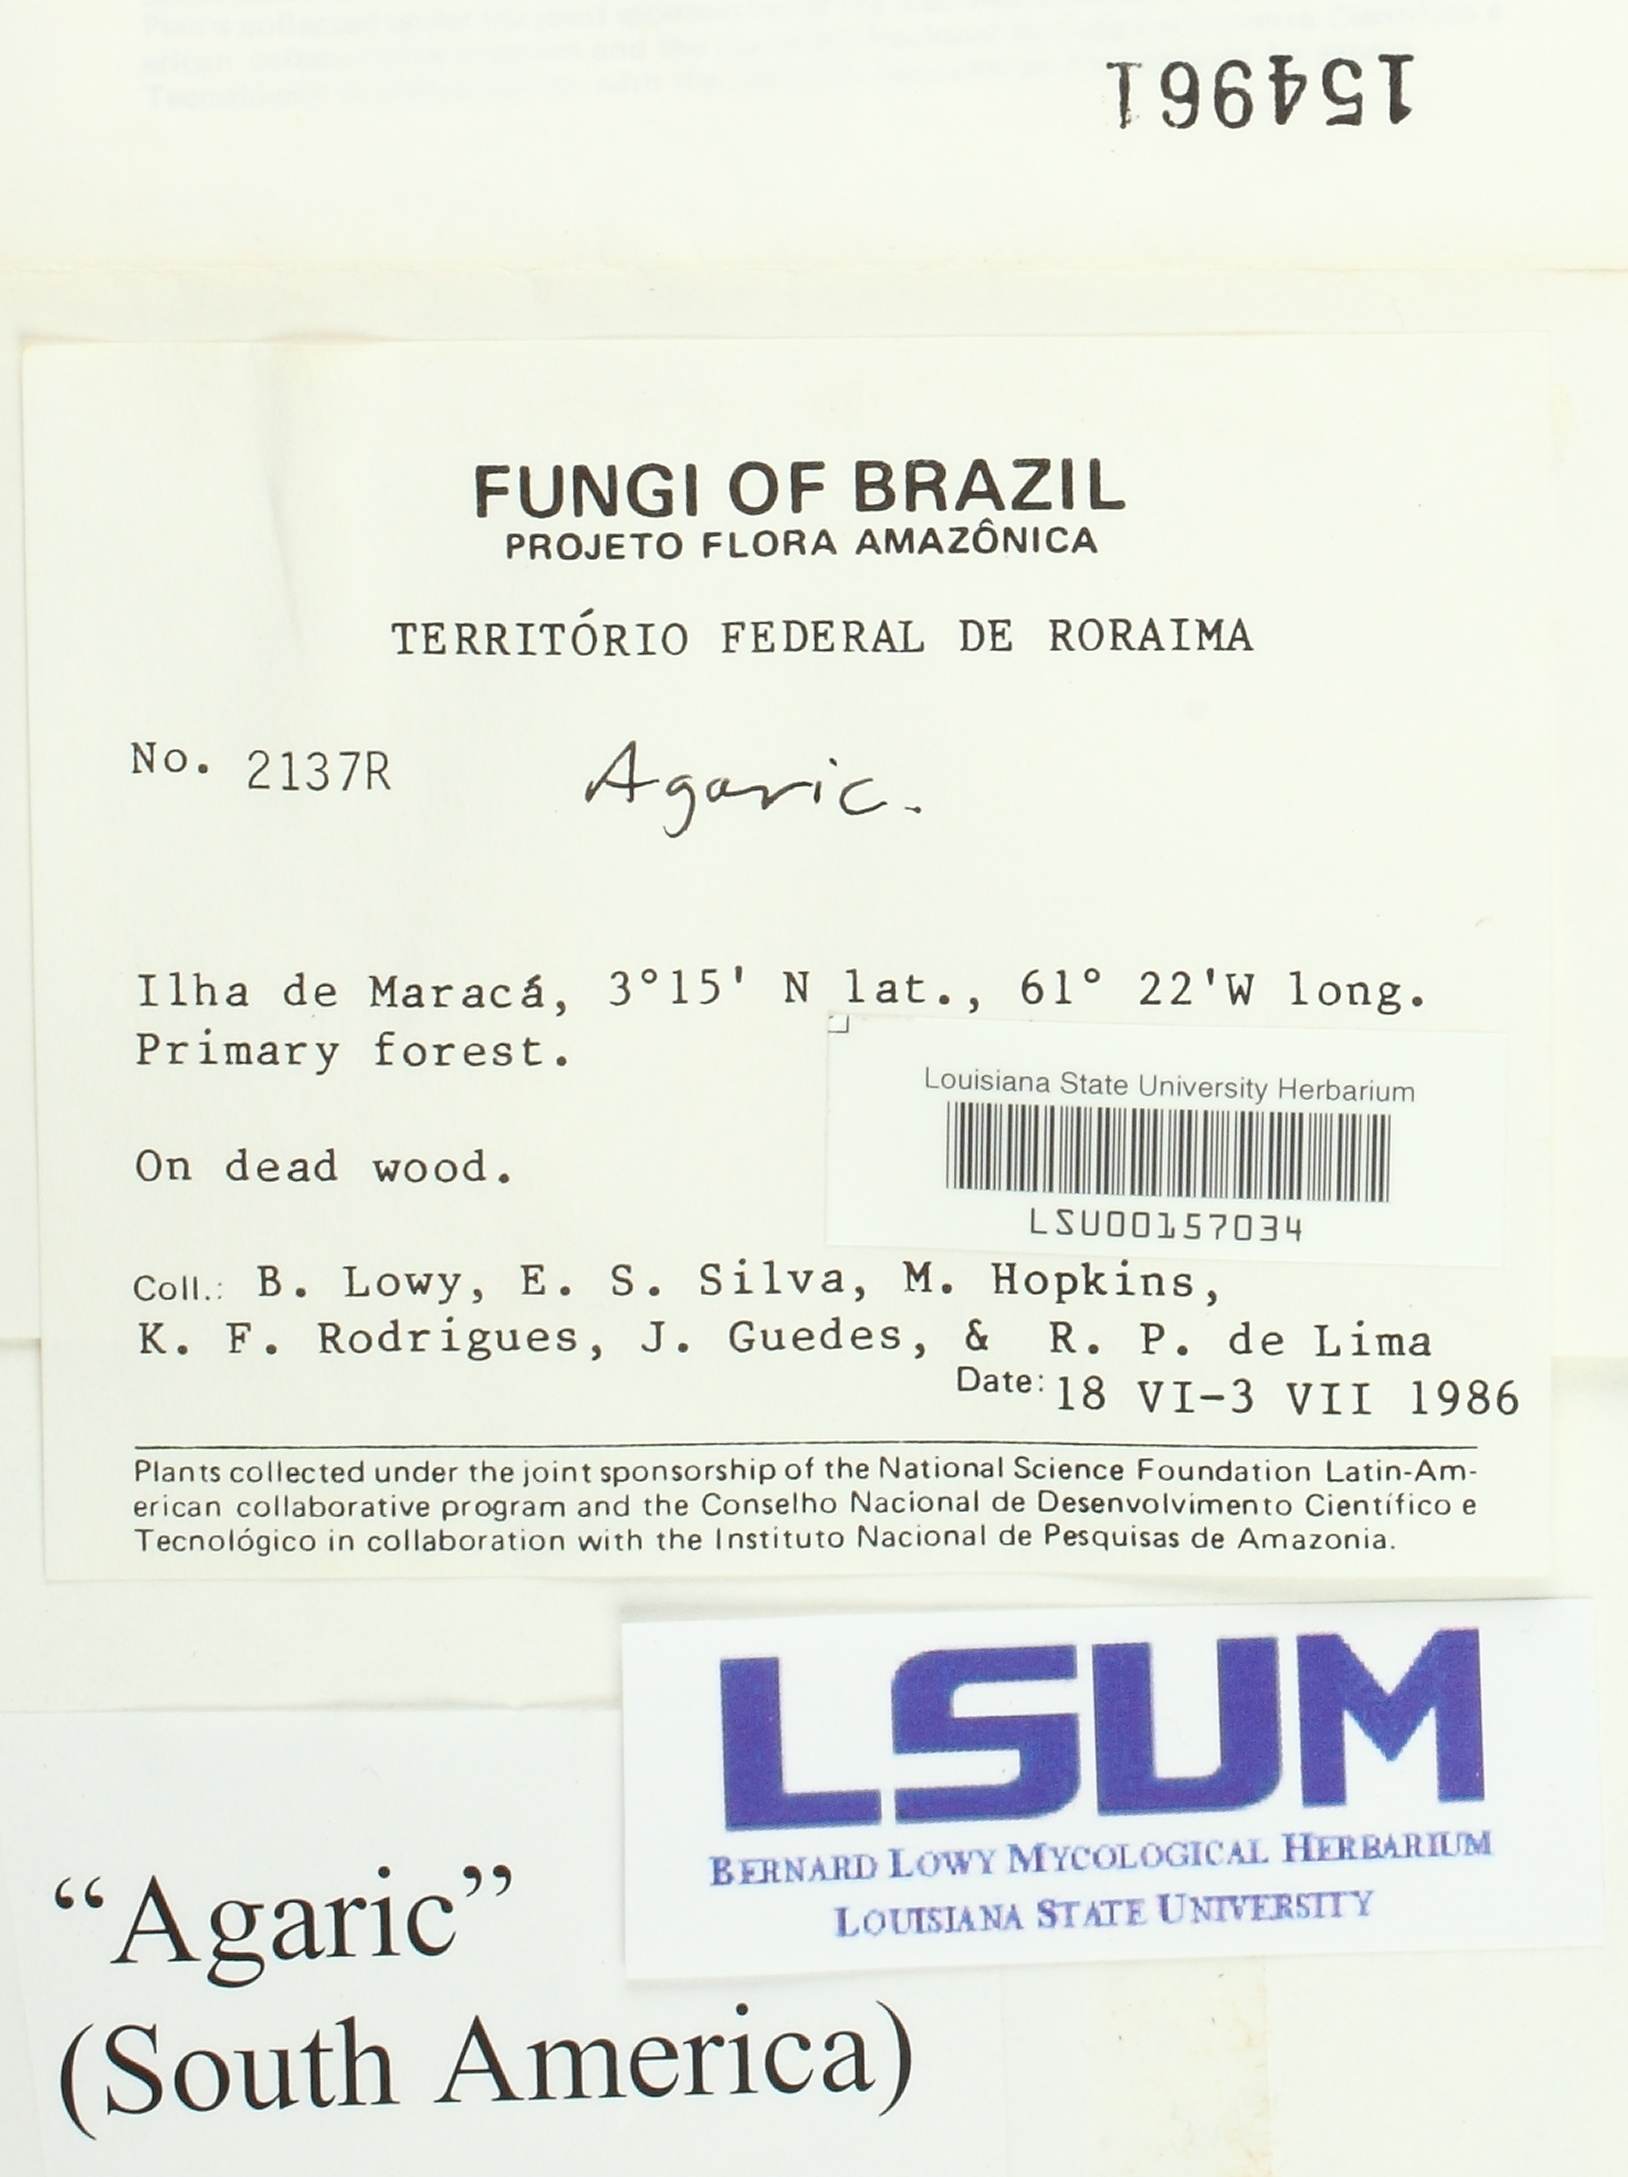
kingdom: Fungi
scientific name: Fungi
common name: Fungi
